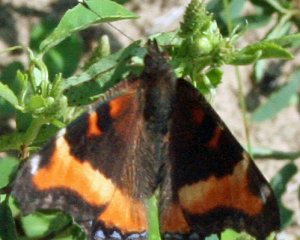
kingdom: Animalia
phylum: Arthropoda
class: Insecta
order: Lepidoptera
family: Nymphalidae
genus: Aglais
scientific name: Aglais milberti
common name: Milbert's Tortoiseshell
